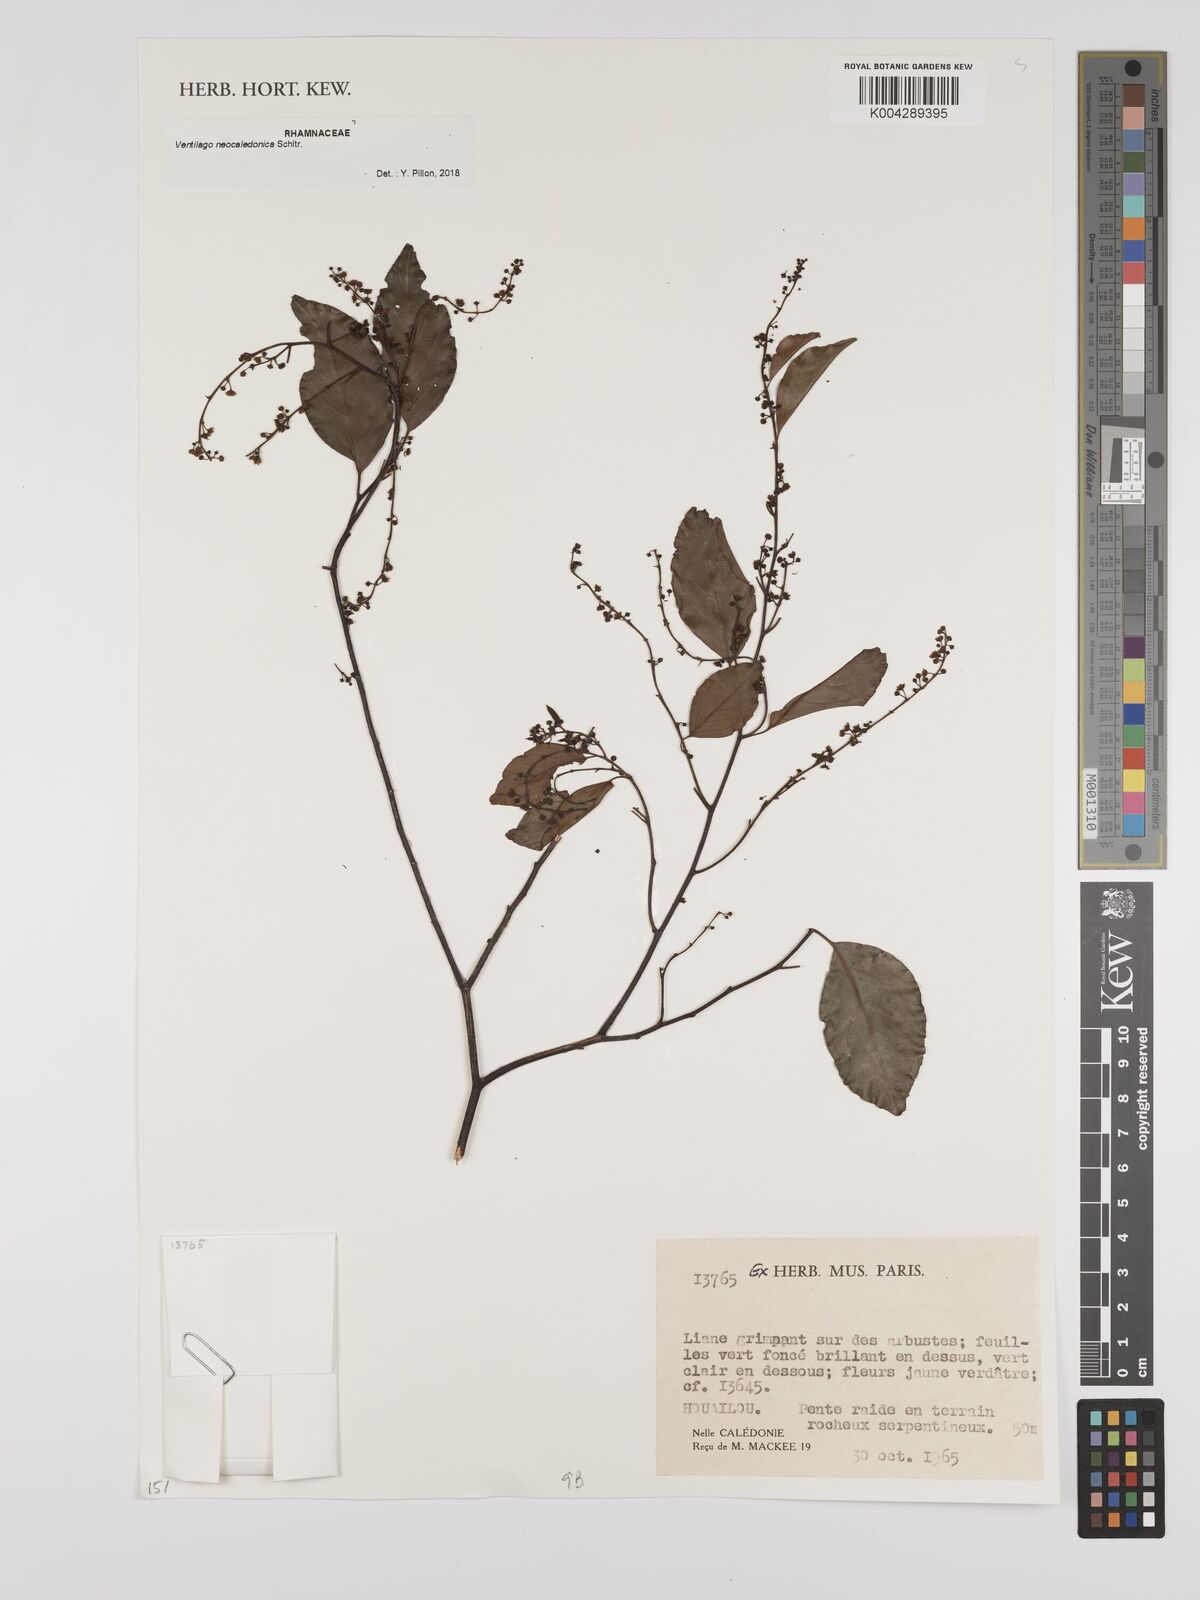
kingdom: Plantae
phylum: Tracheophyta
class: Magnoliopsida
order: Rosales
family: Rhamnaceae
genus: Ventilago
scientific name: Ventilago neocaledonica
